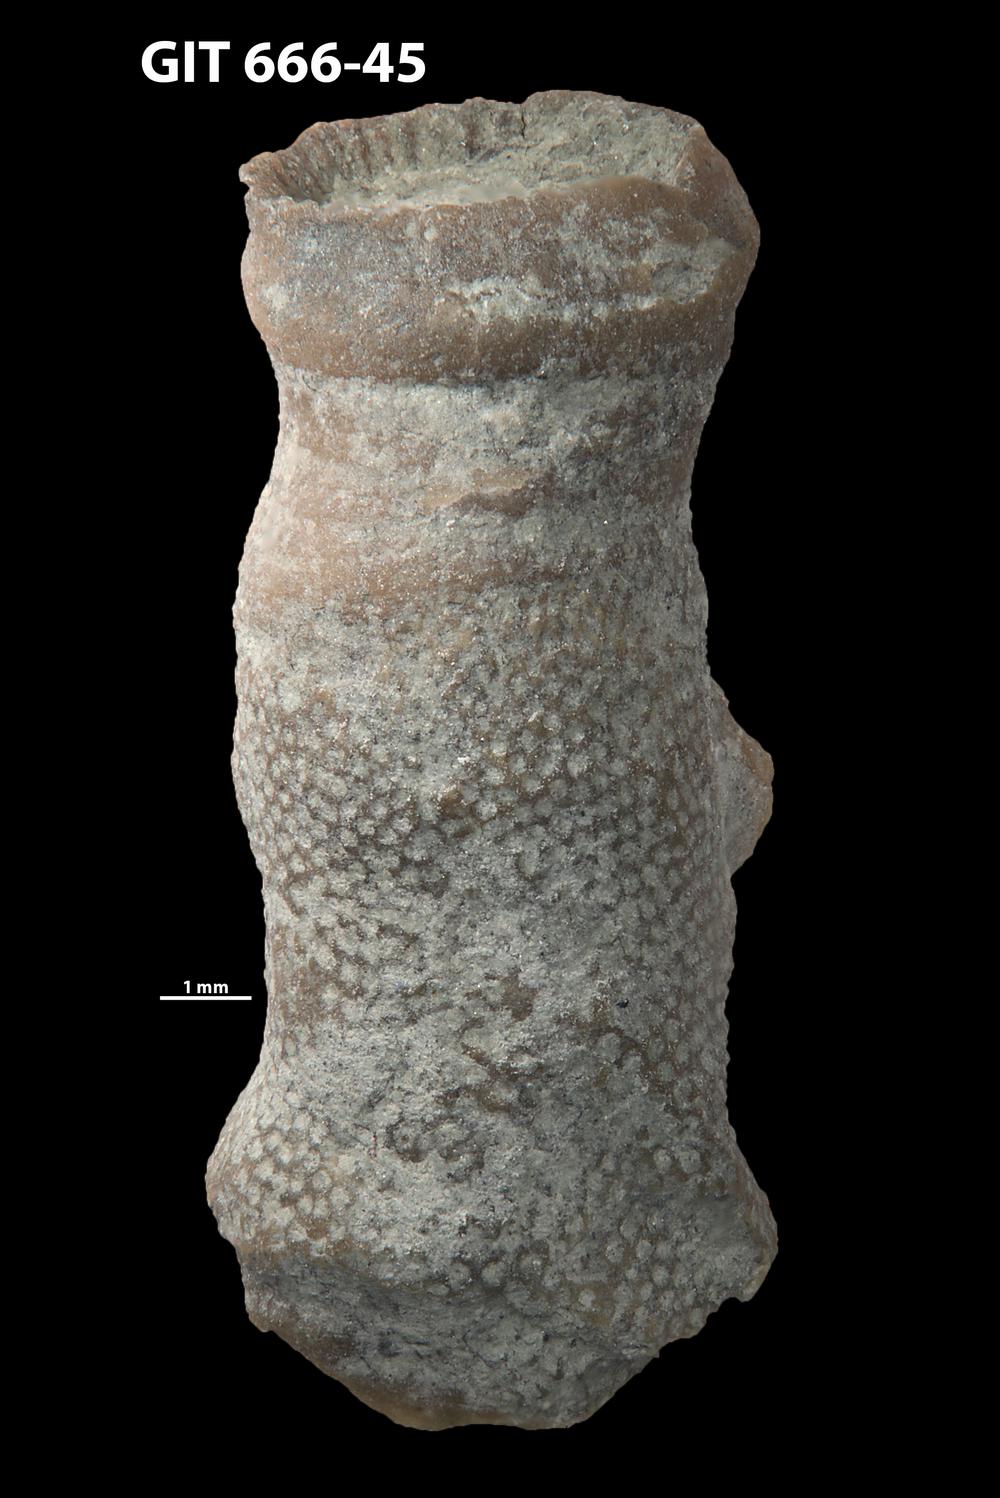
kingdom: Animalia
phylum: Bryozoa
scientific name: Bryozoa
